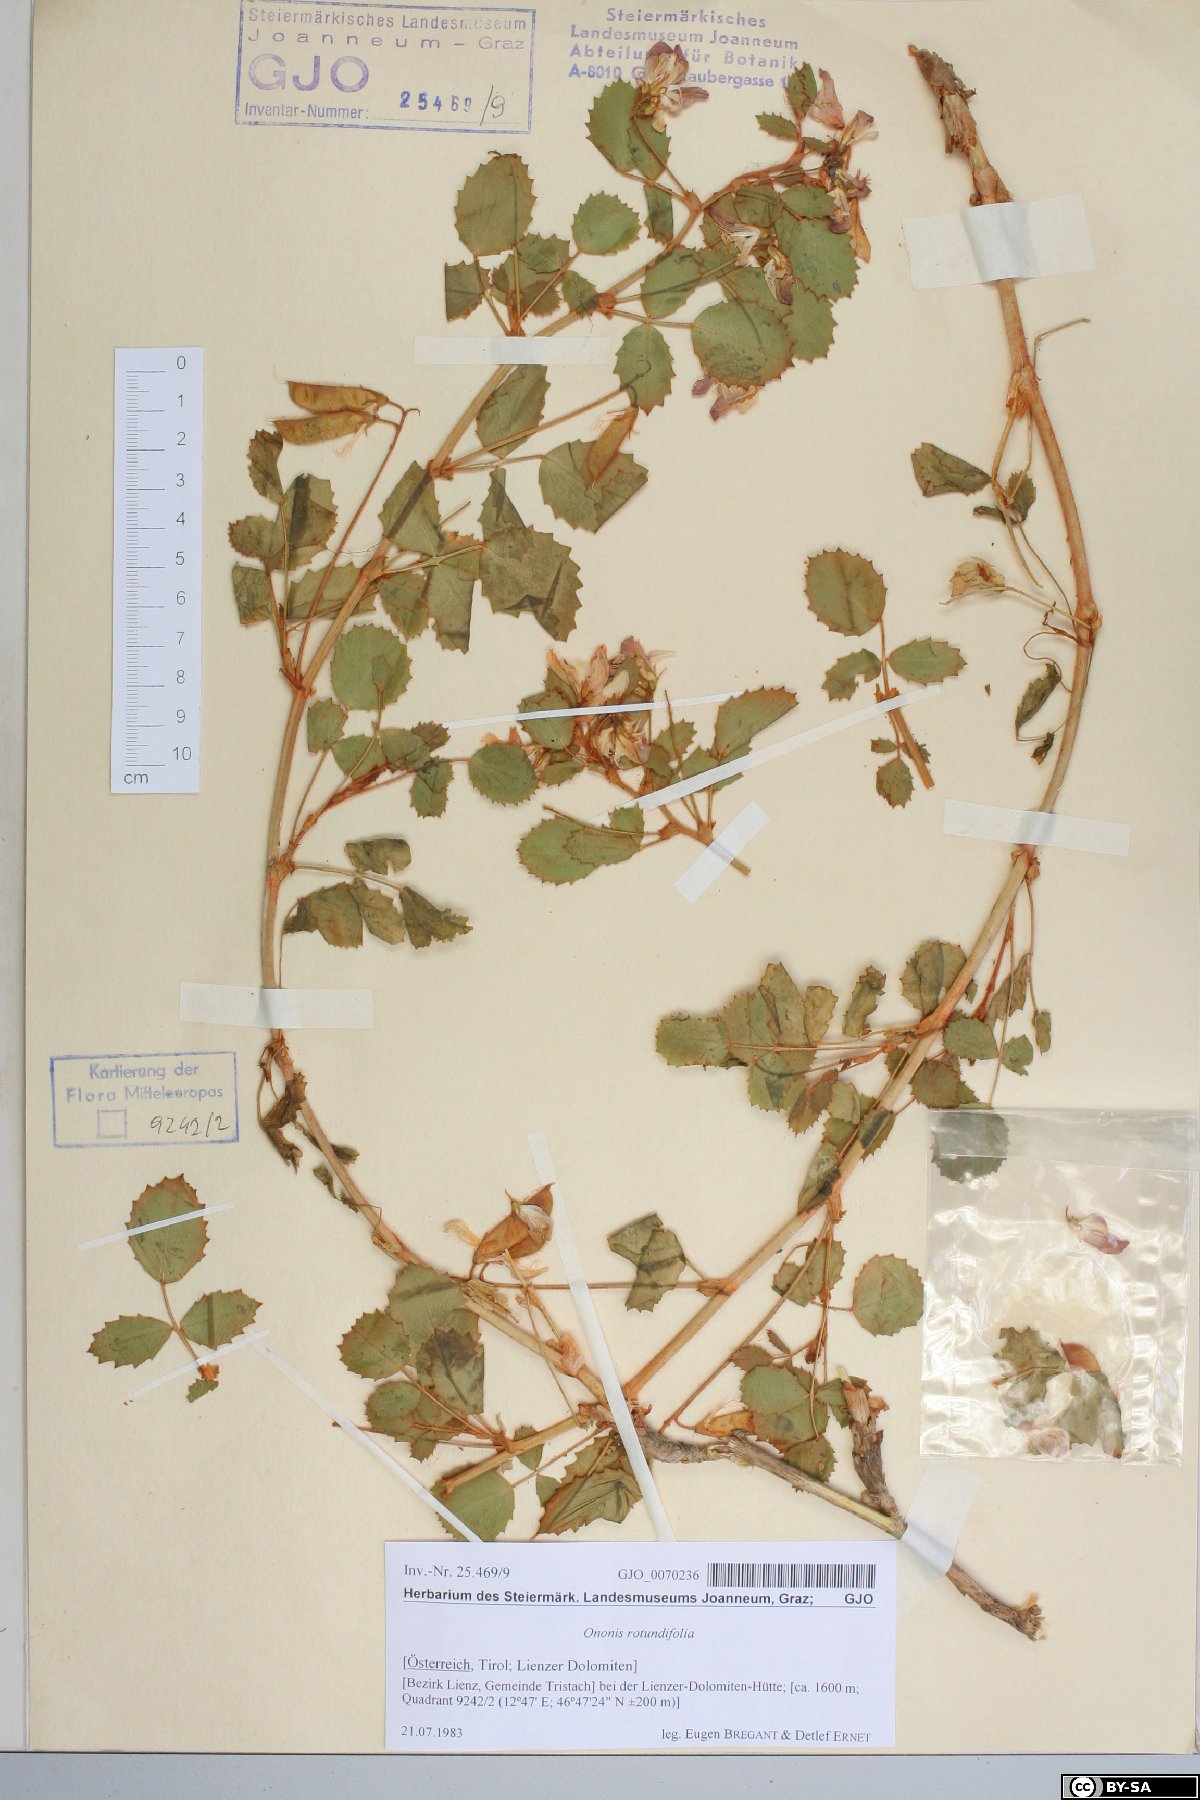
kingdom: Plantae
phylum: Tracheophyta
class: Magnoliopsida
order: Fabales
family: Fabaceae
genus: Ononis
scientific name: Ononis rotundifolia
